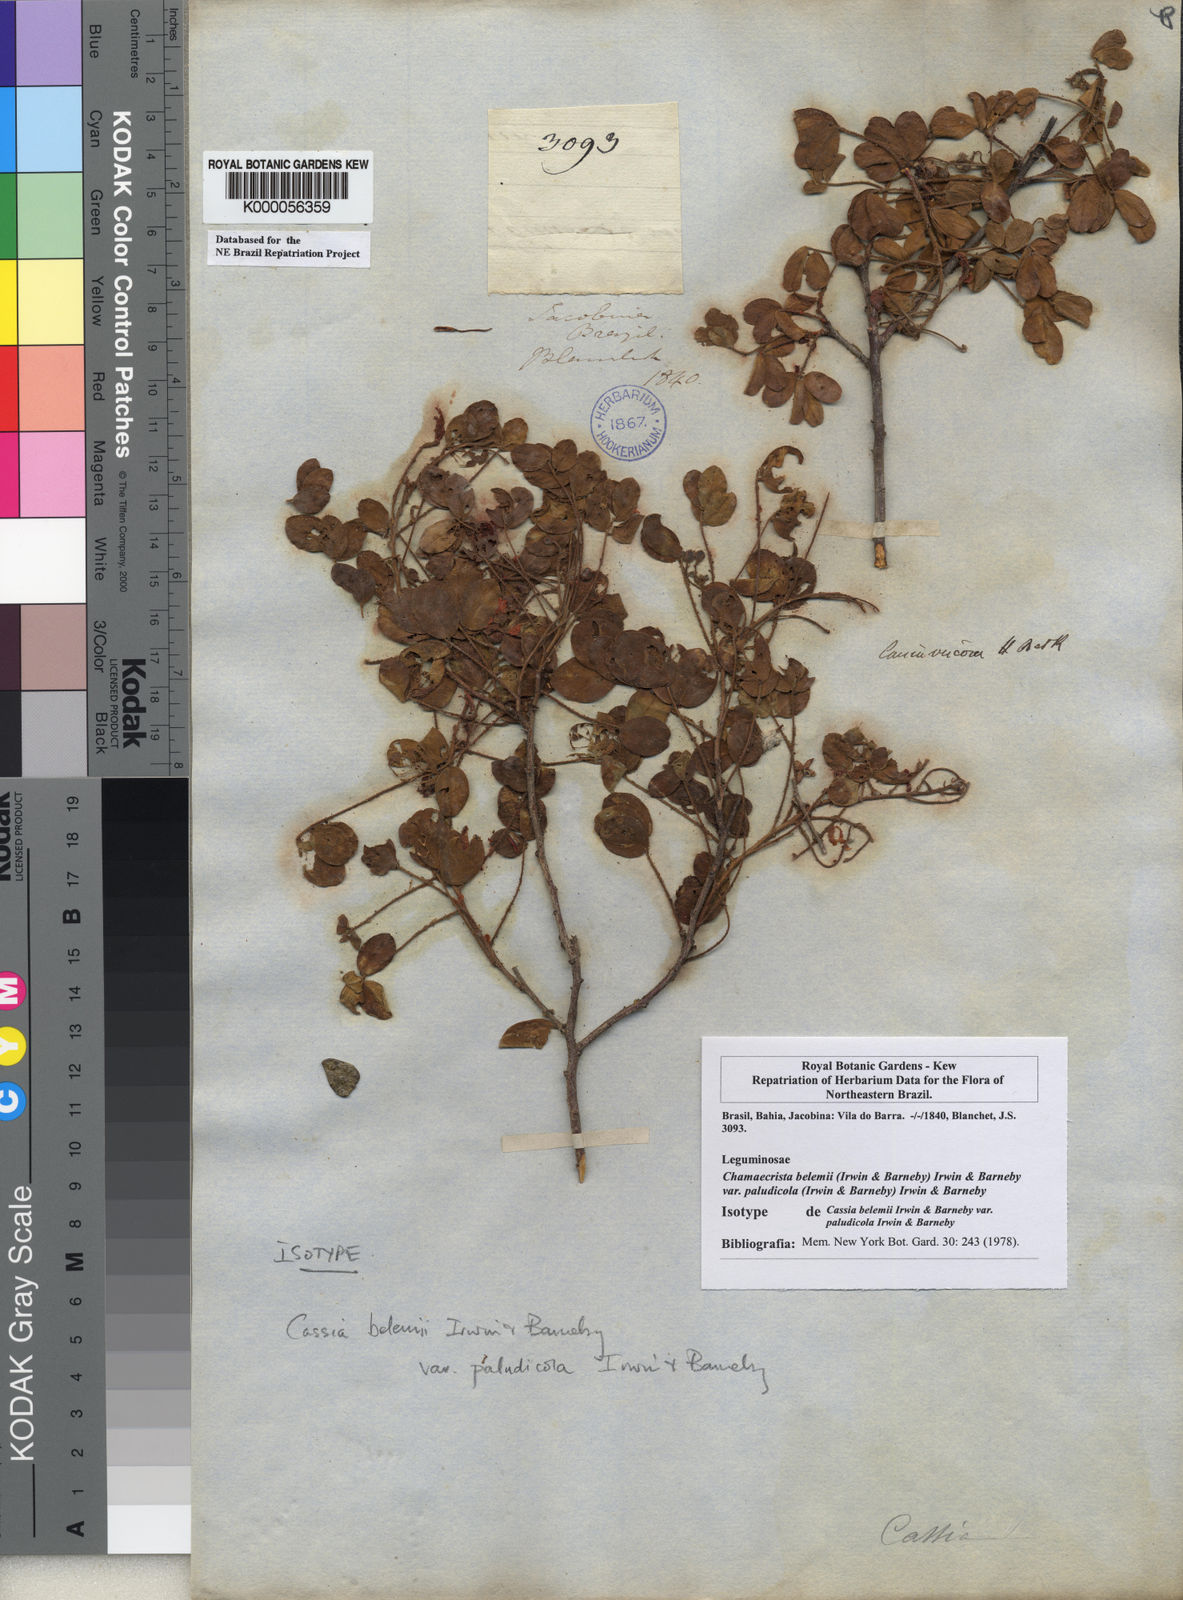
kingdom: Plantae
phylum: Tracheophyta
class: Magnoliopsida
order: Fabales
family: Fabaceae
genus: Chamaecrista
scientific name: Chamaecrista belemii
